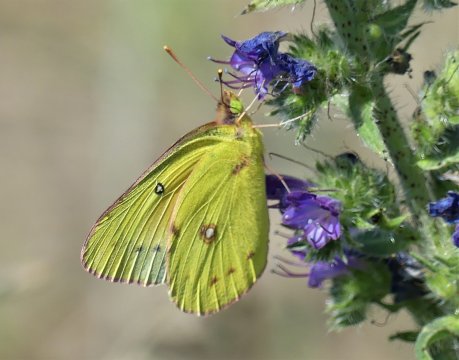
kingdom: Animalia
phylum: Arthropoda
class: Insecta
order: Lepidoptera
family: Pieridae
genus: Colias
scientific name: Colias eurytheme
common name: Orange Sulphur
